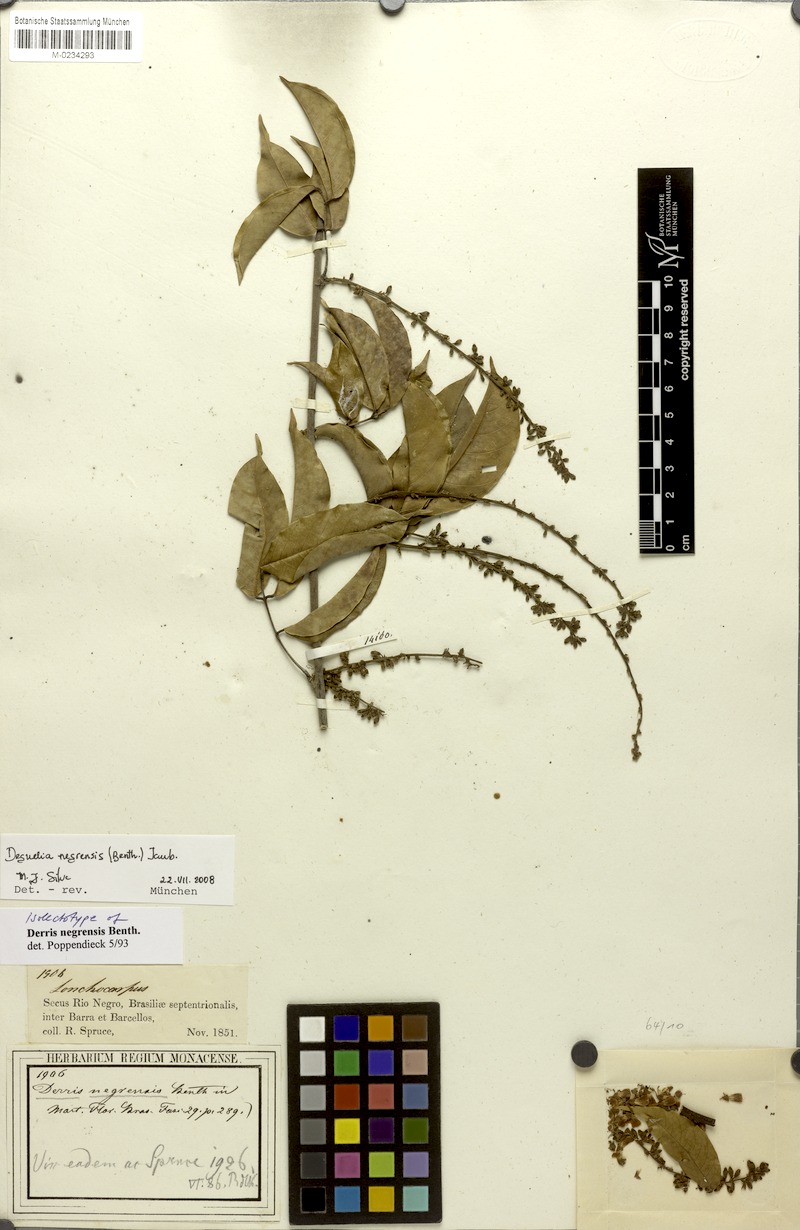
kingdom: Plantae
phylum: Tracheophyta
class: Magnoliopsida
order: Fabales
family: Fabaceae
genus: Deguelia
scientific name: Deguelia scandens
